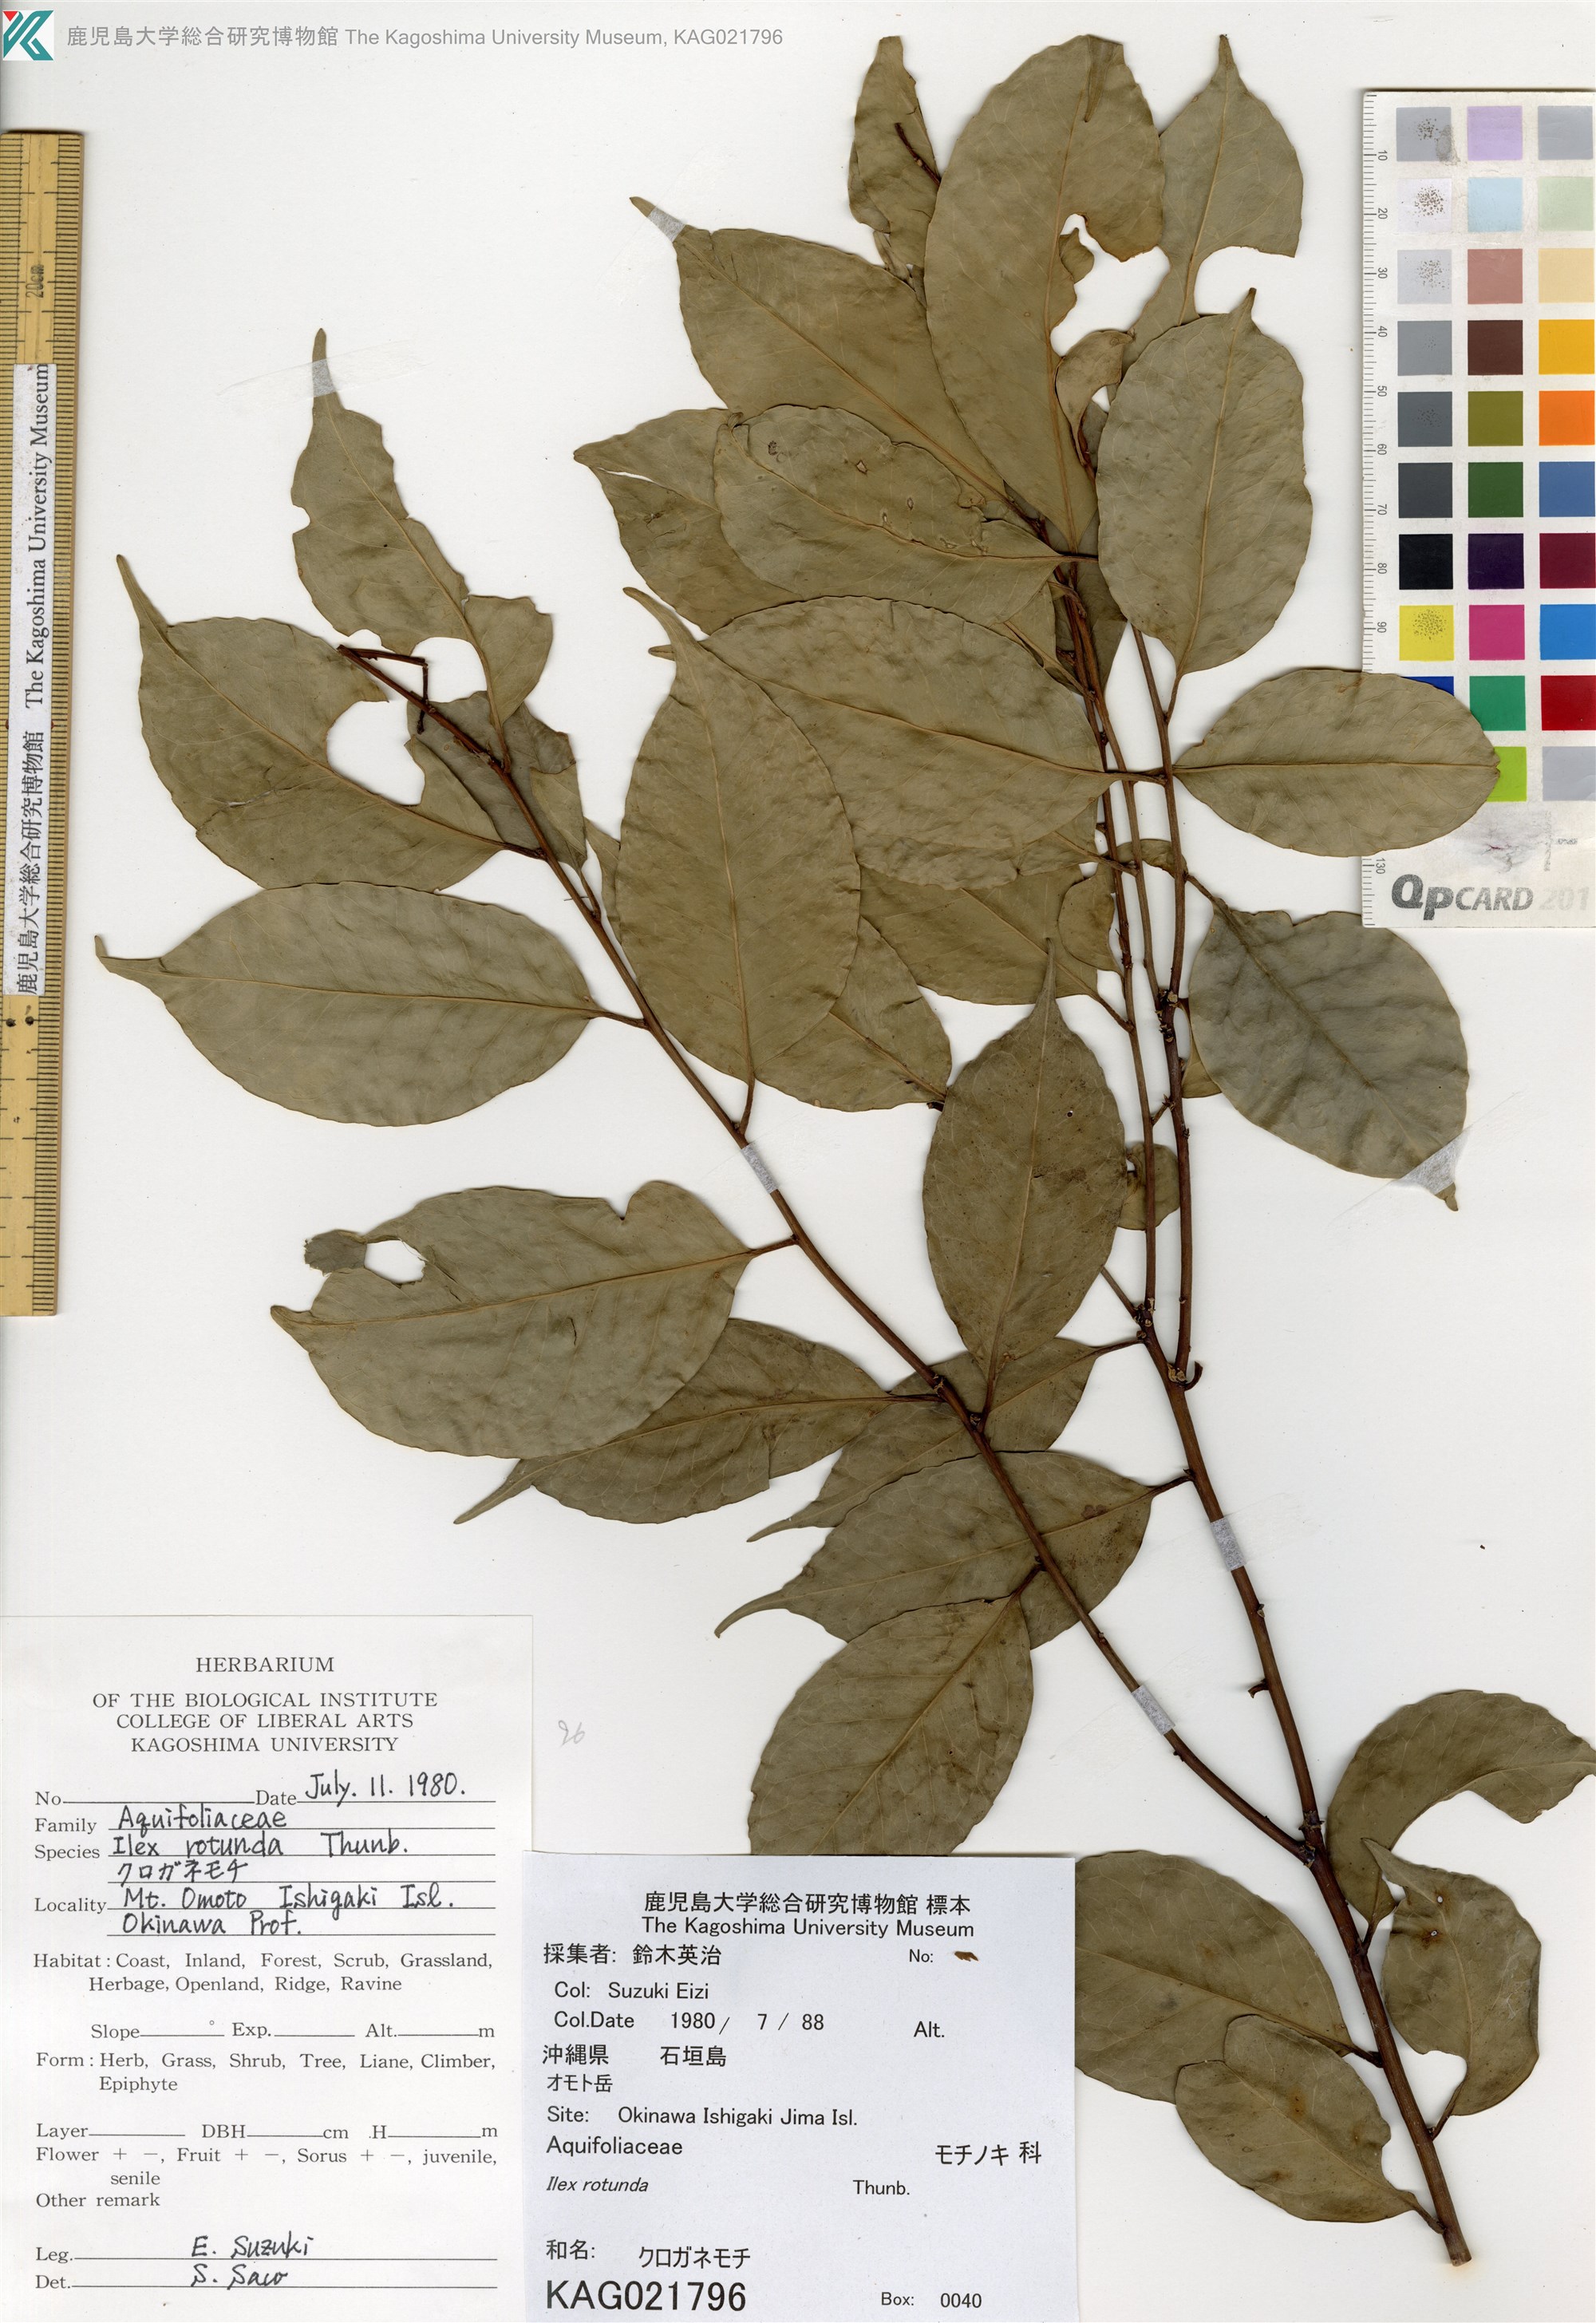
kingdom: Plantae
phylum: Tracheophyta
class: Magnoliopsida
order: Aquifoliales
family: Aquifoliaceae
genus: Ilex
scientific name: Ilex rotunda
